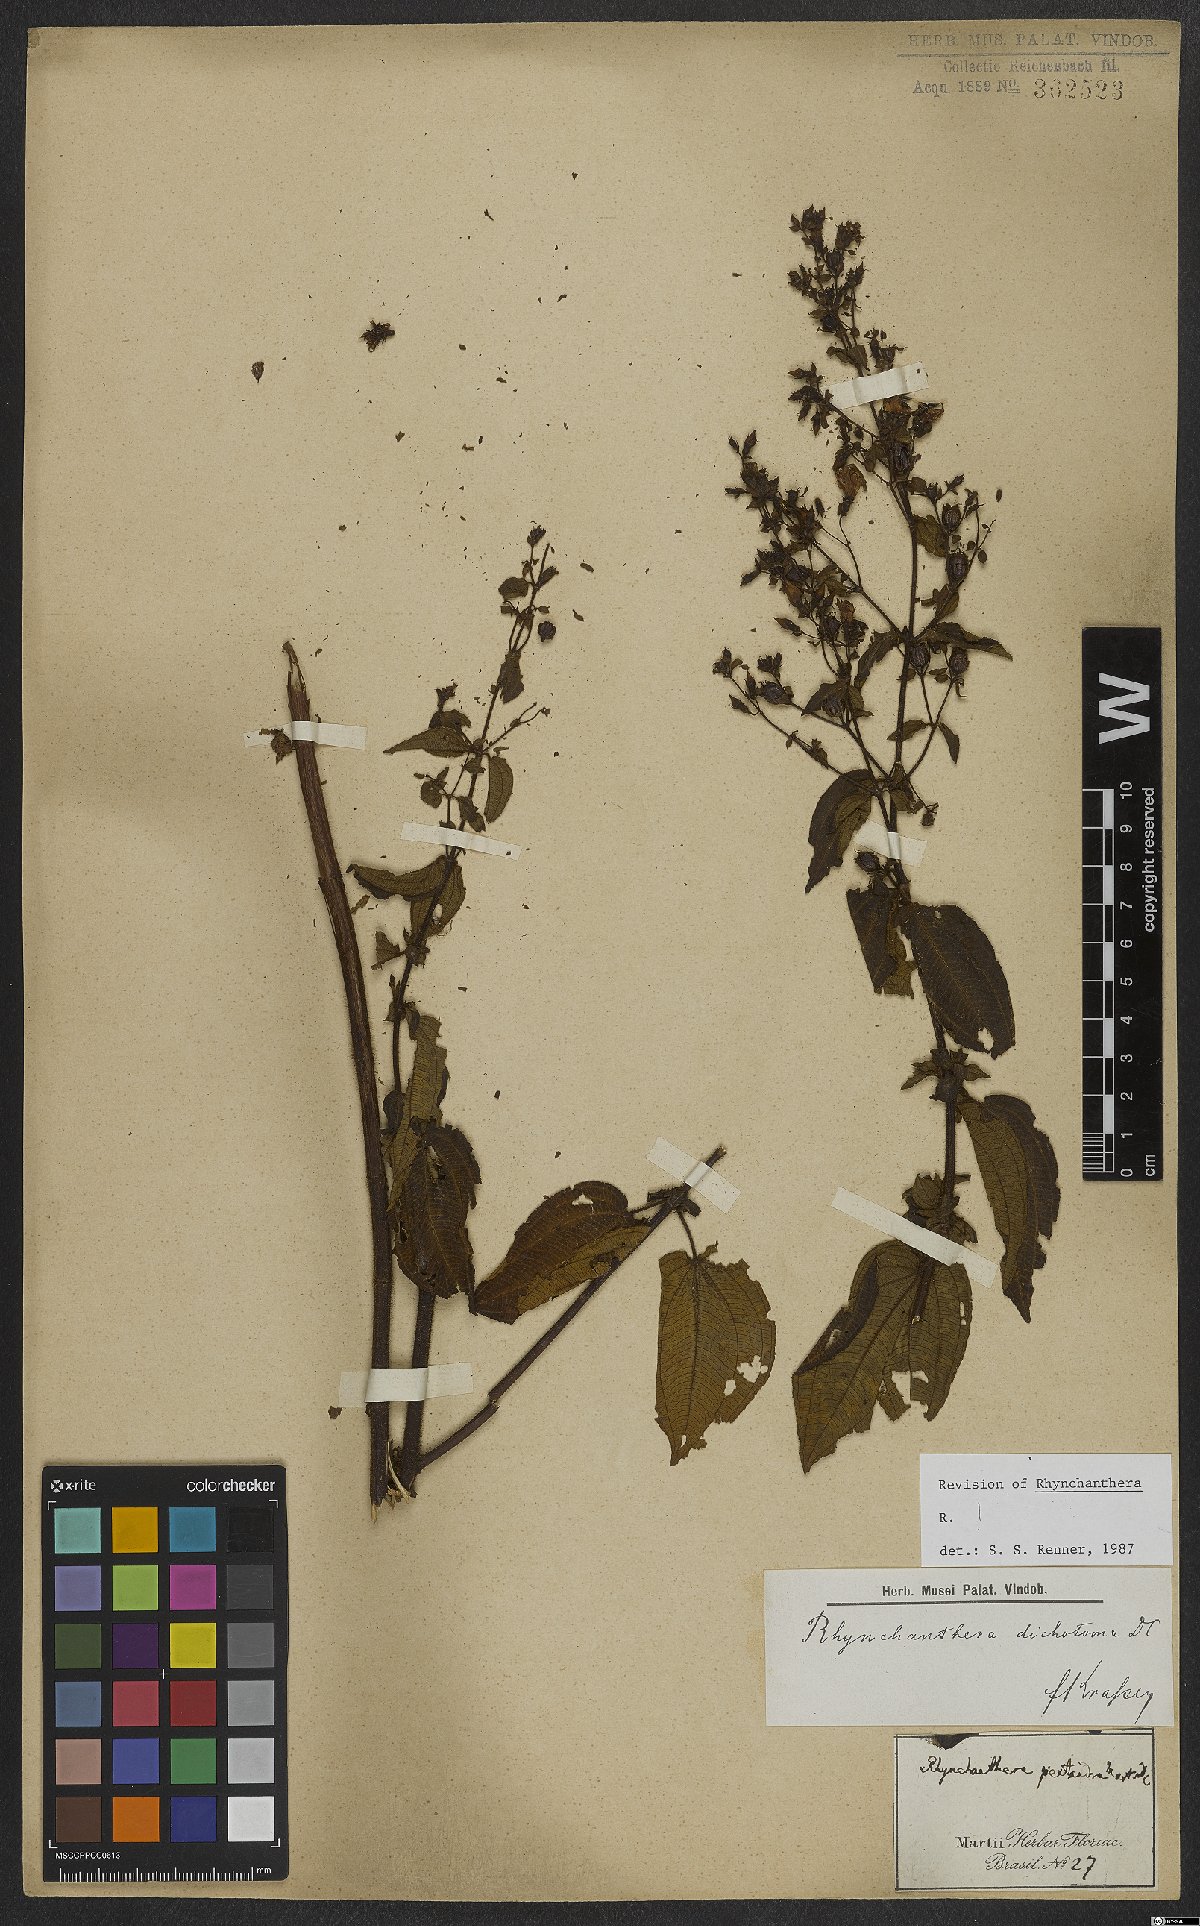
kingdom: Plantae
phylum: Tracheophyta
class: Magnoliopsida
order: Myrtales
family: Melastomataceae
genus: Rhynchanthera
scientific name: Rhynchanthera dichotoma
